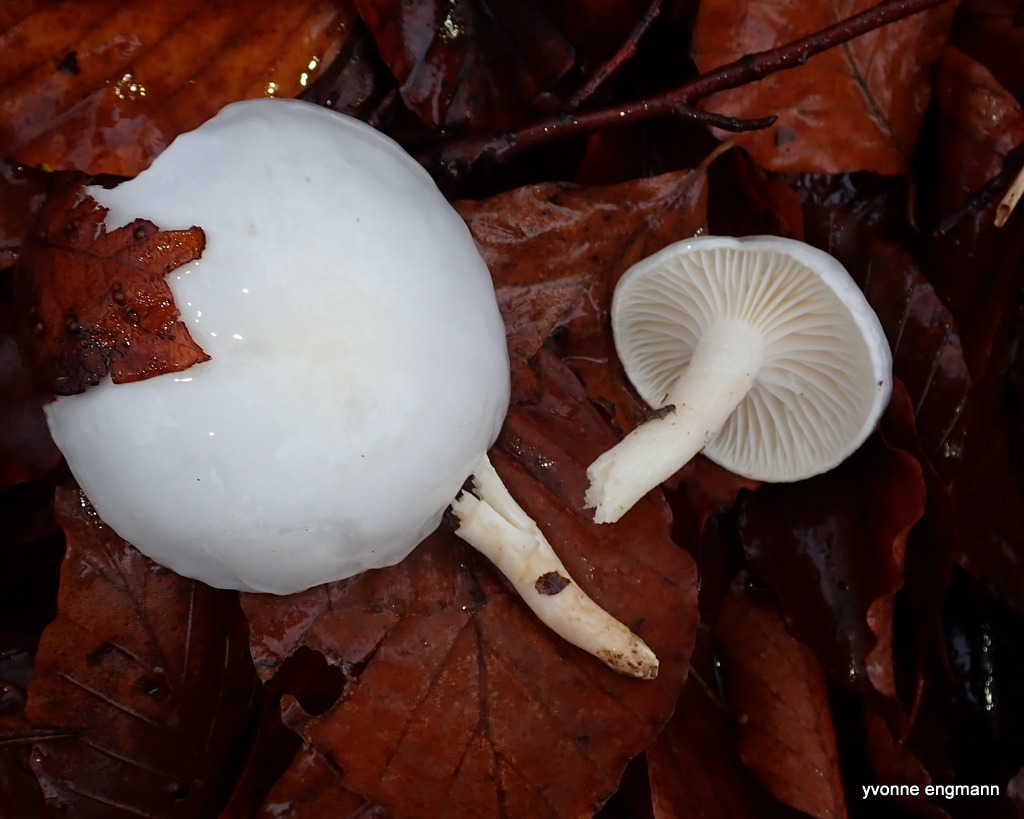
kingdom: Fungi
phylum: Basidiomycota
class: Agaricomycetes
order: Agaricales
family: Hygrophoraceae
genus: Hygrophorus
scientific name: Hygrophorus
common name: sneglehat
